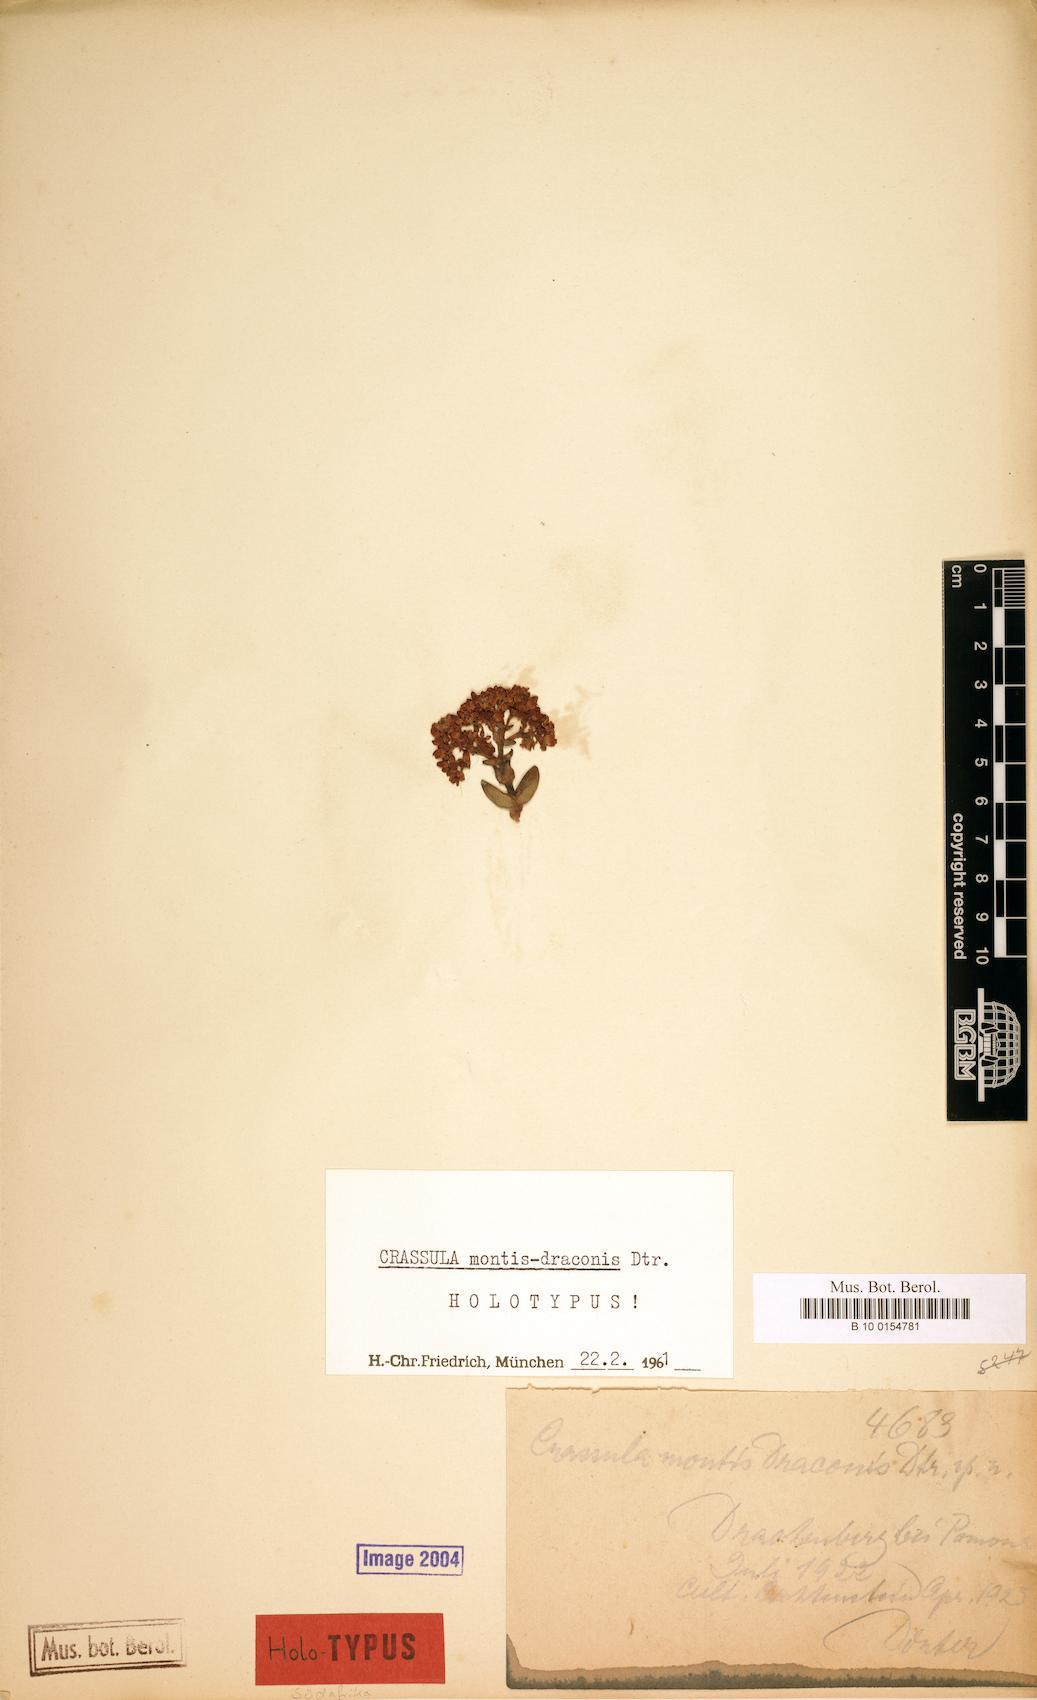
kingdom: Plantae
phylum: Tracheophyta
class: Magnoliopsida
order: Saxifragales
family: Crassulaceae
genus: Crassula
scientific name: Crassula brevifolia
